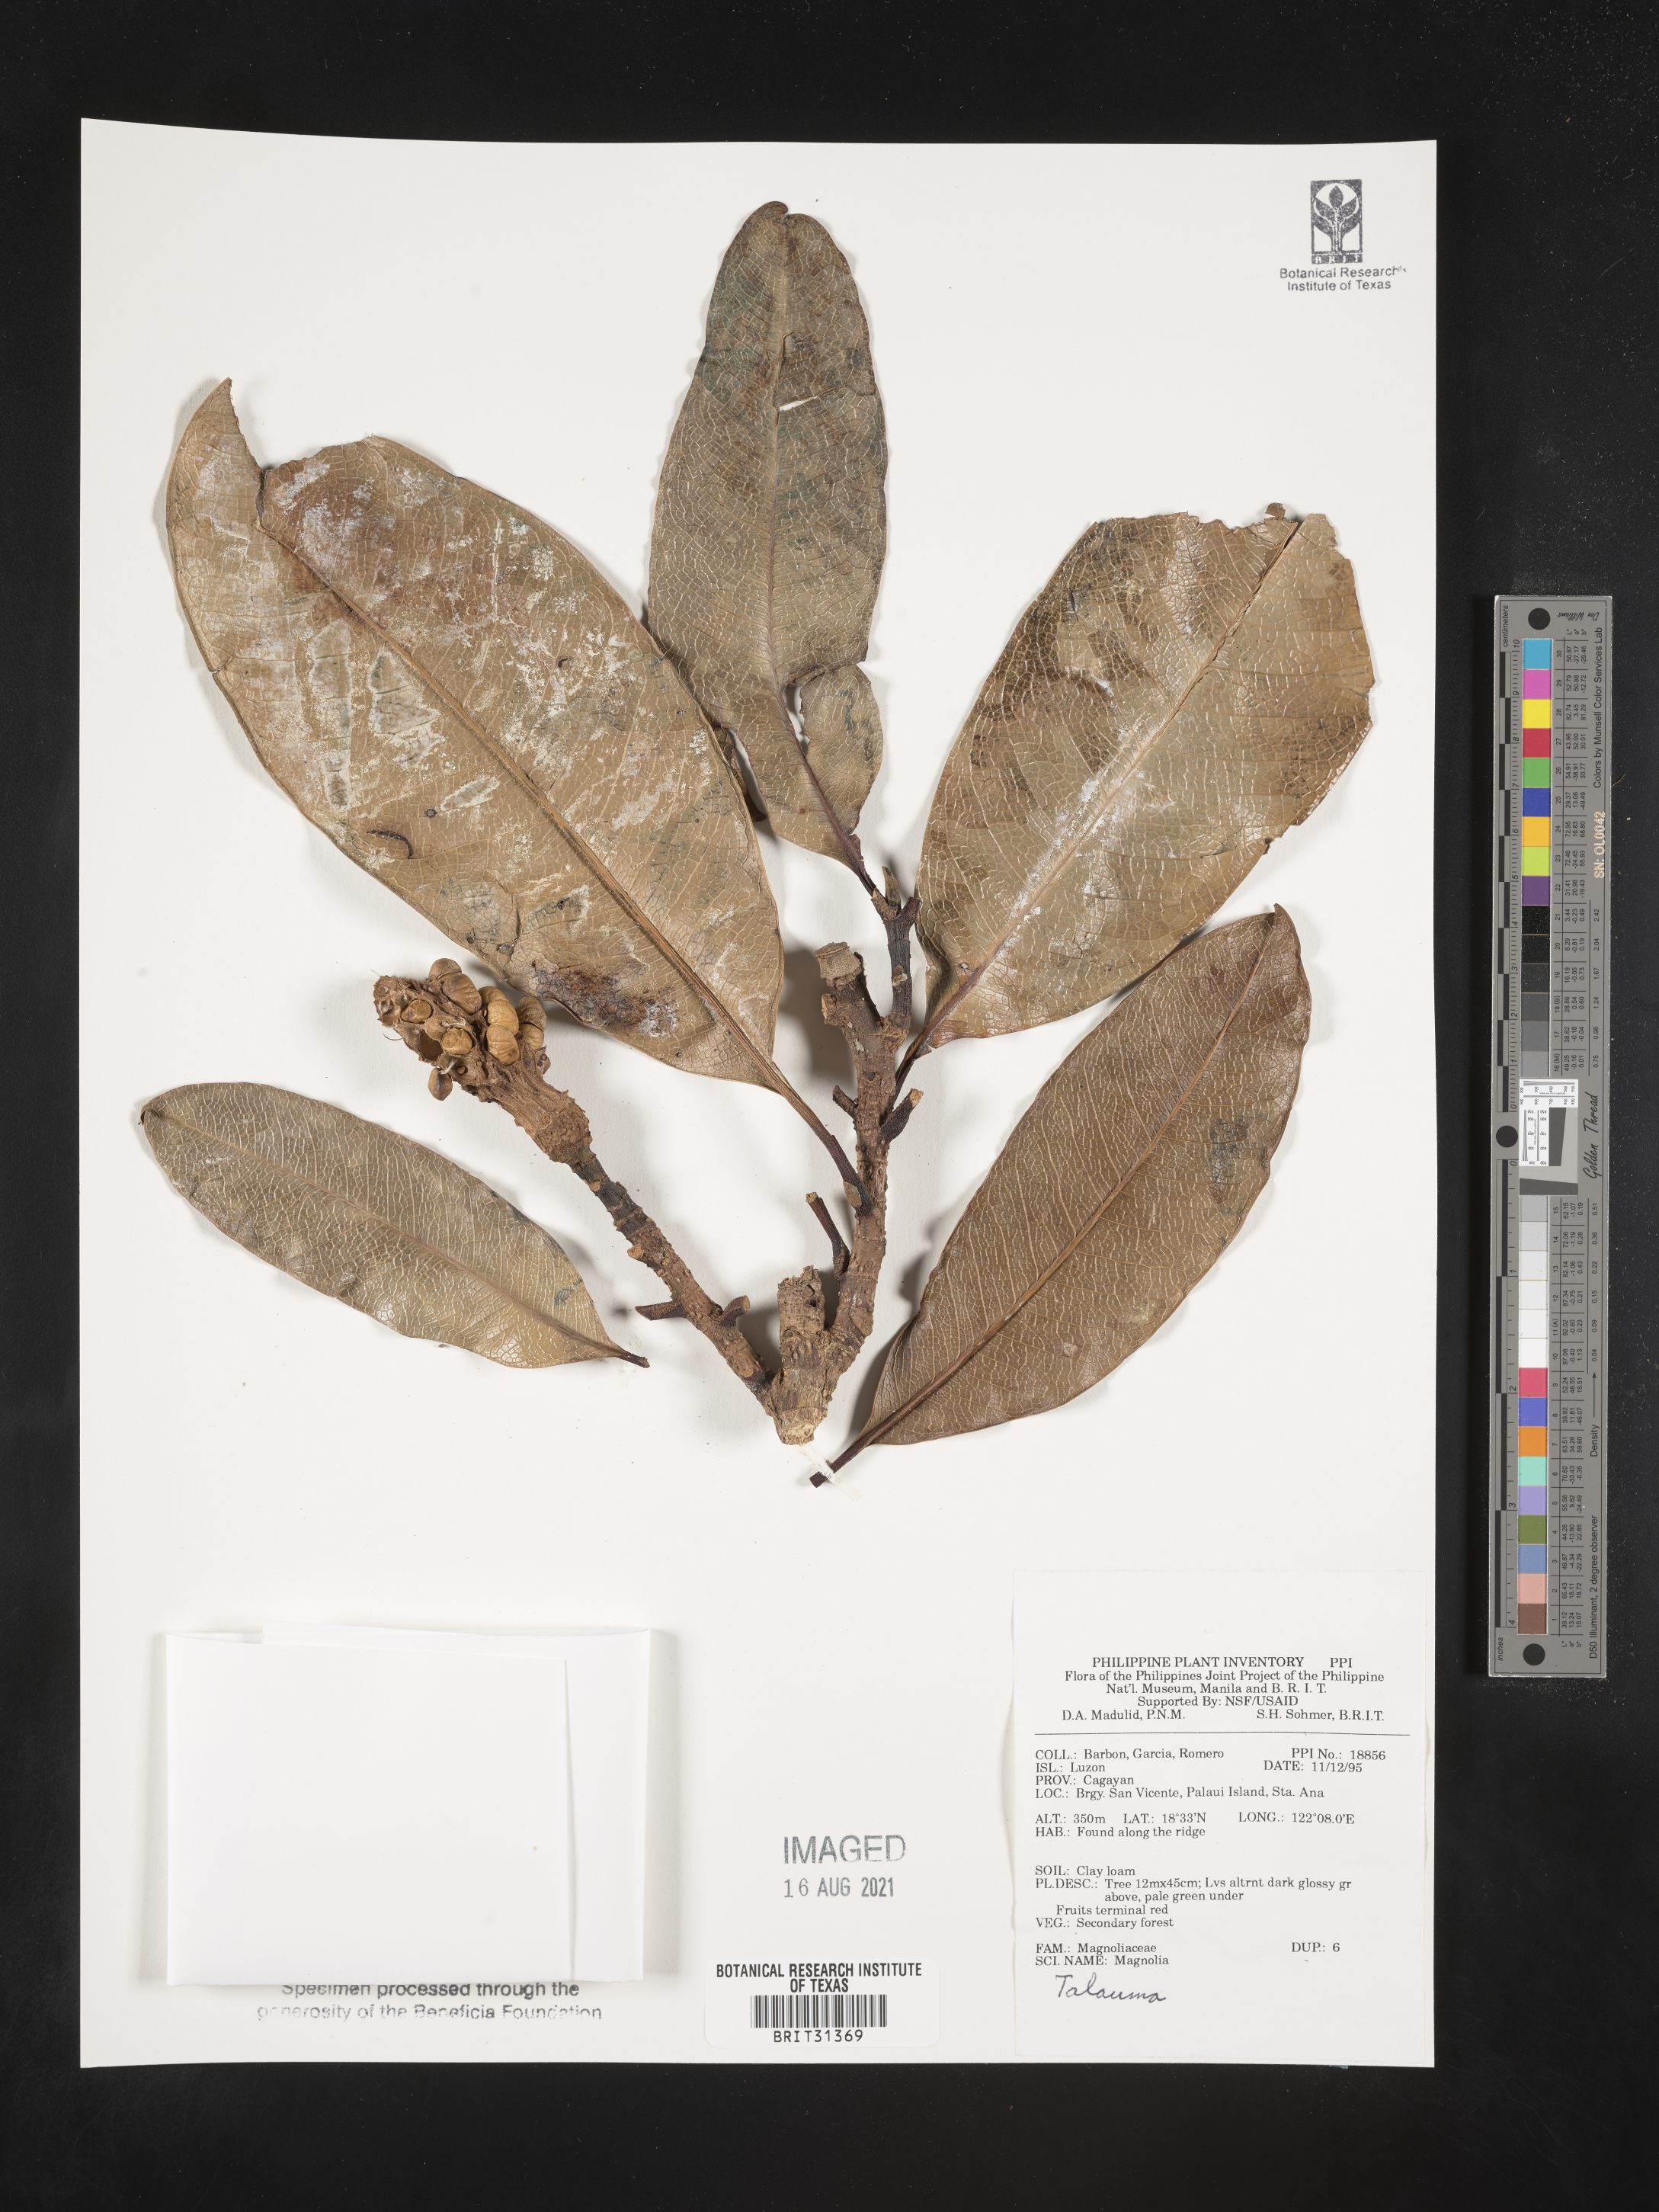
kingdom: Plantae
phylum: Tracheophyta
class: Magnoliopsida
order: Magnoliales
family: Magnoliaceae
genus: Magnolia
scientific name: Magnolia Talauma spec
